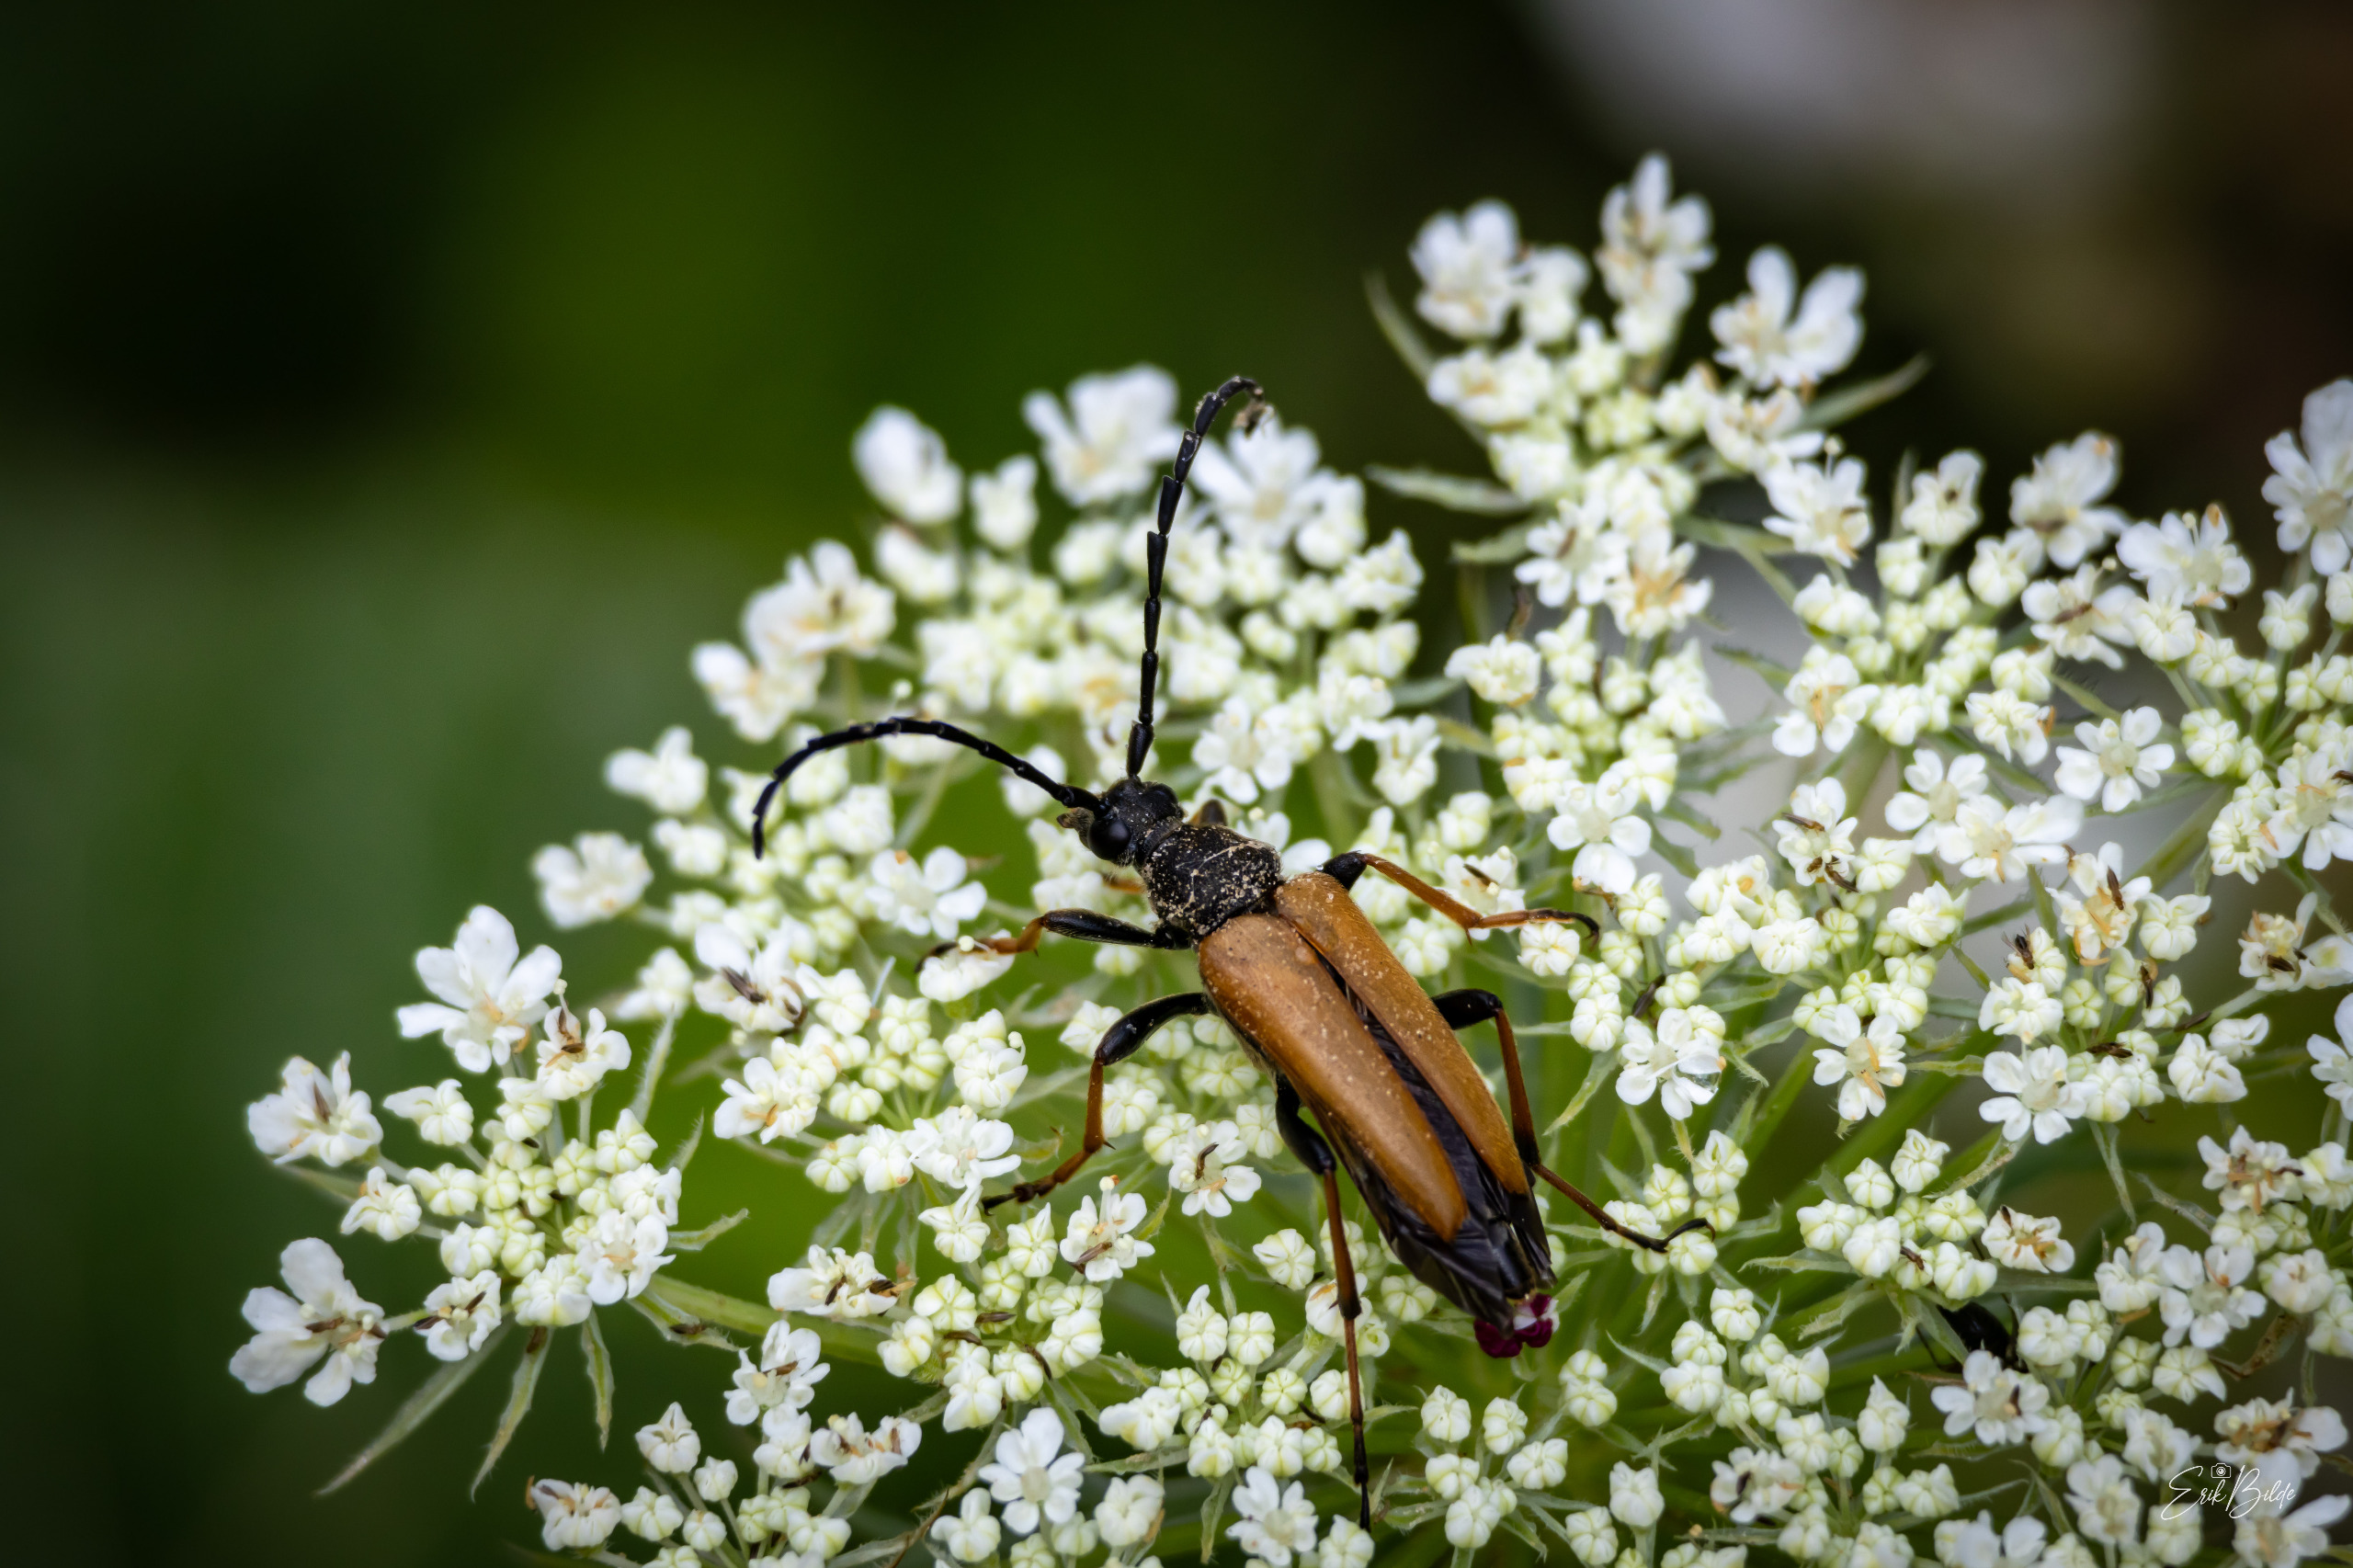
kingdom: Animalia
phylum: Arthropoda
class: Insecta
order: Coleoptera
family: Cerambycidae
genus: Stictoleptura
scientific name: Stictoleptura rubra
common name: Rød blomsterbuk
